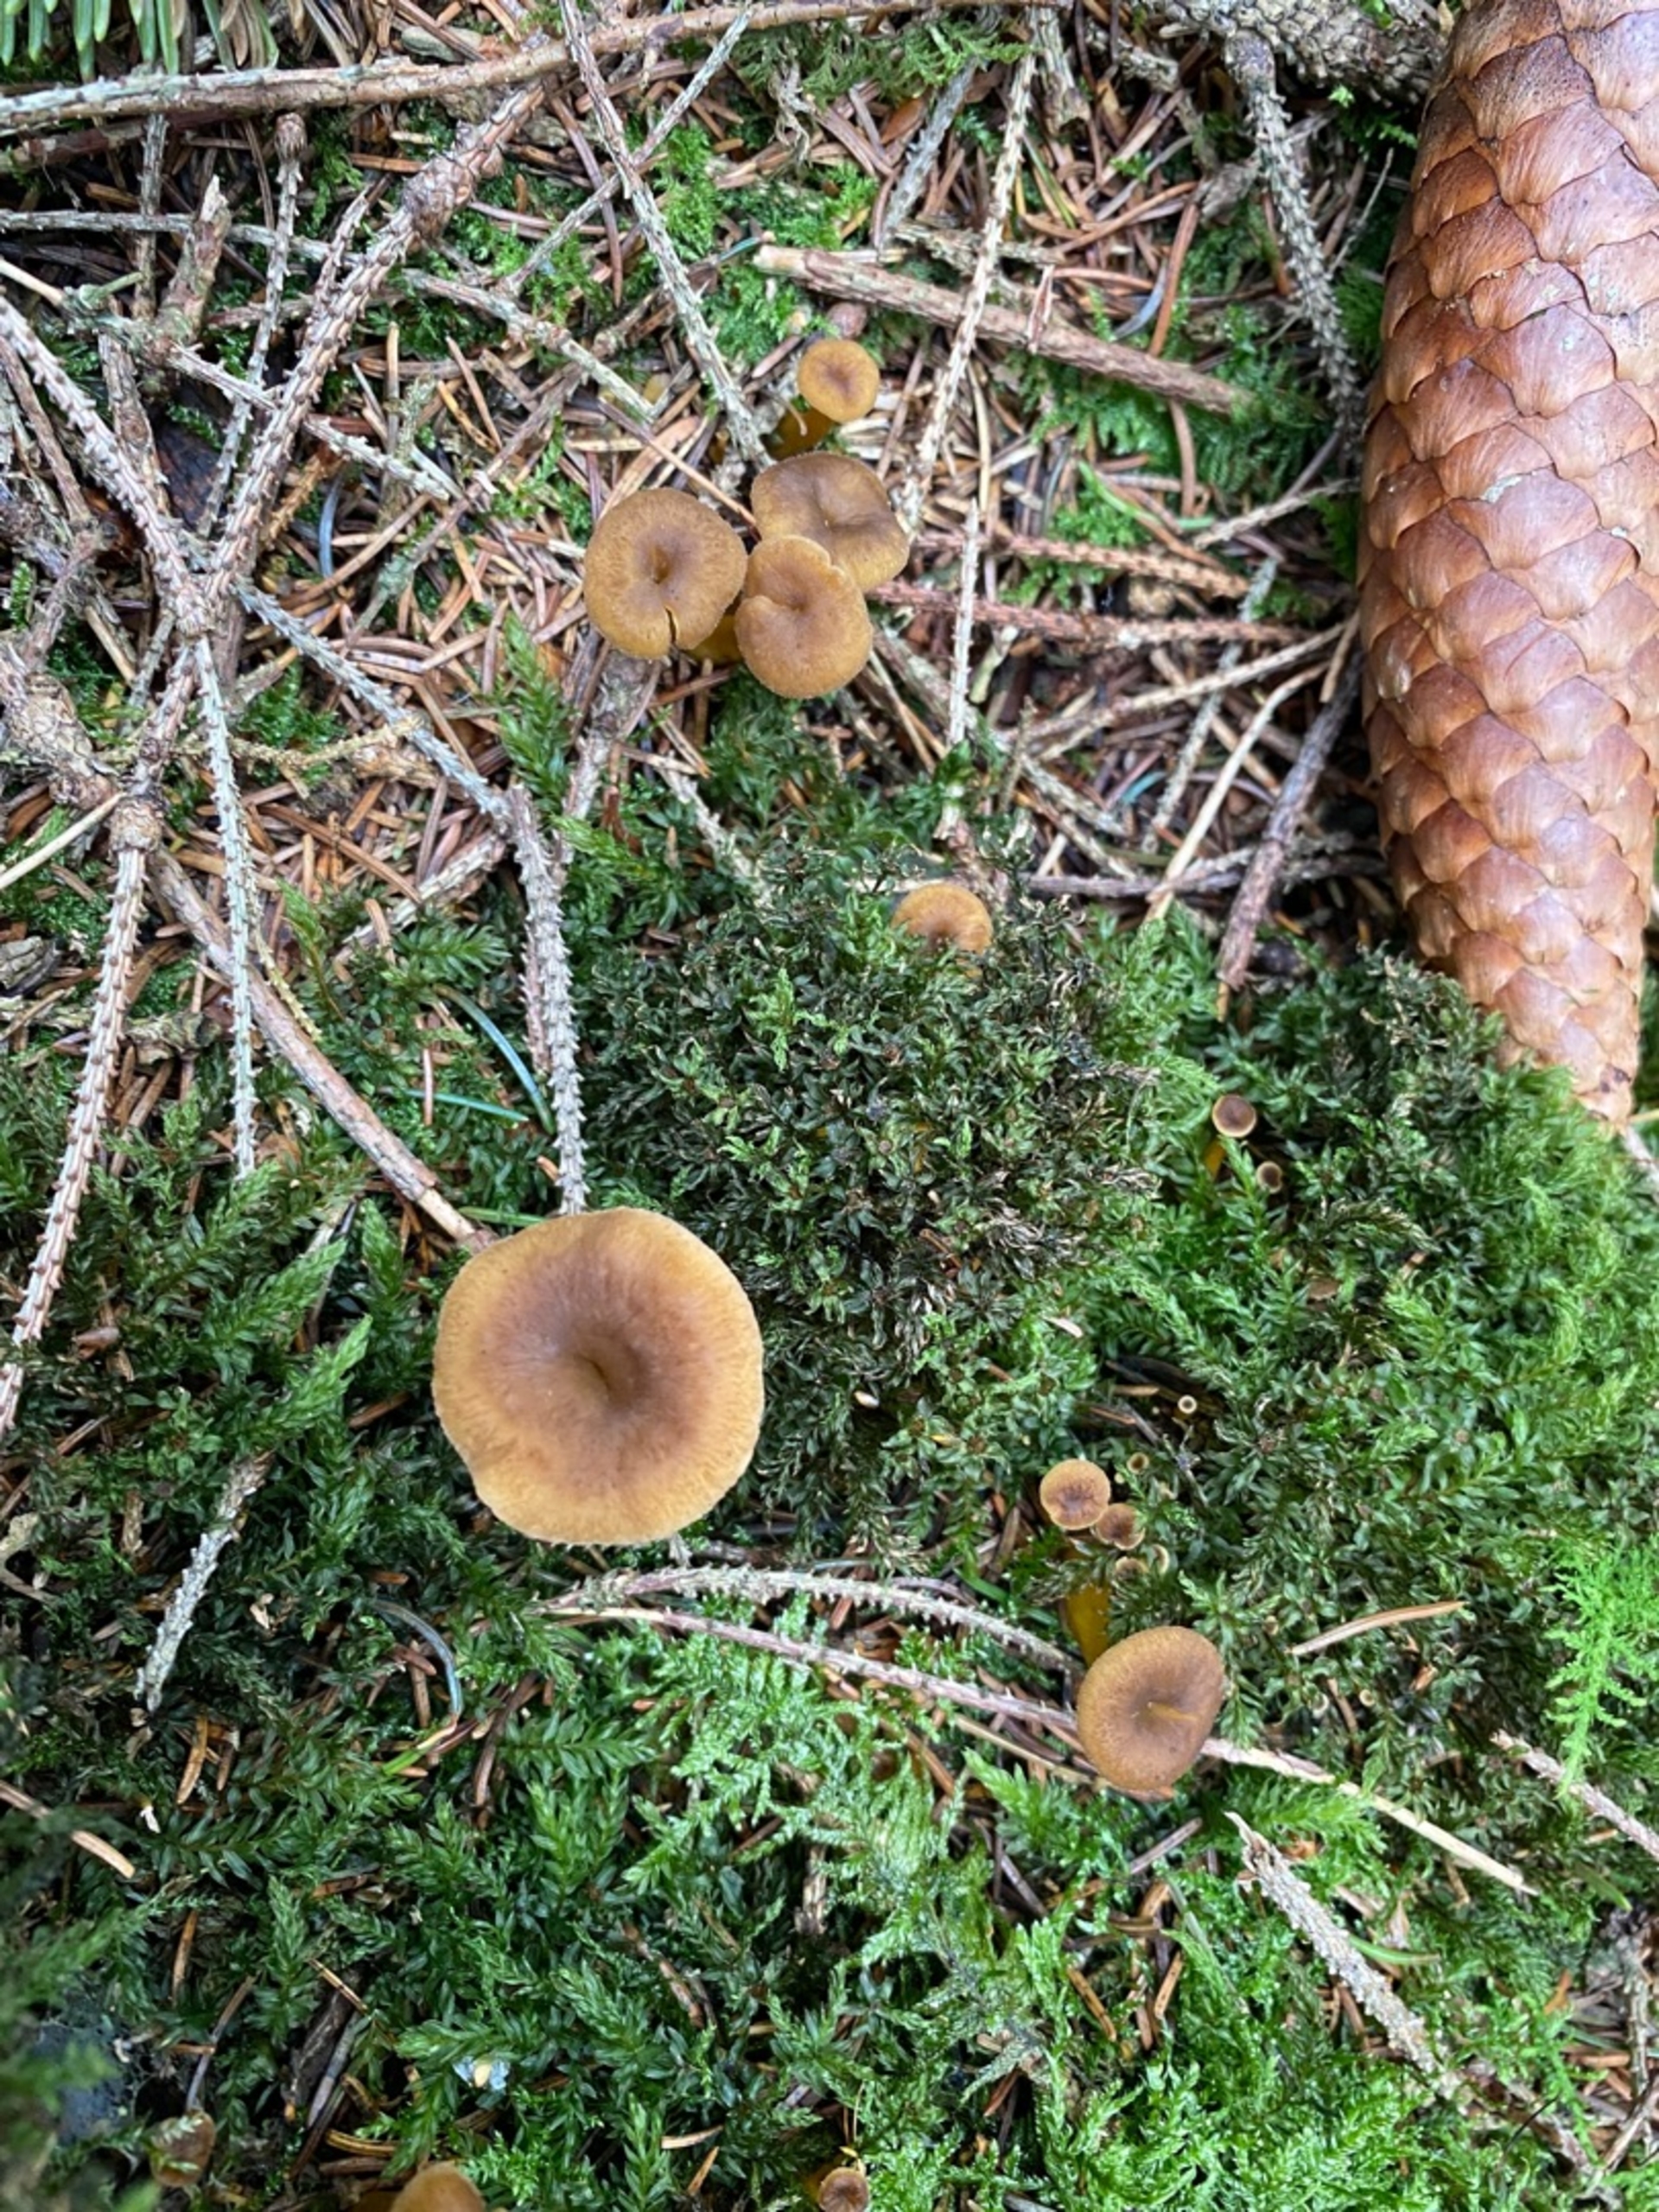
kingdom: Fungi
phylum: Basidiomycota
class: Agaricomycetes
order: Cantharellales
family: Hydnaceae
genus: Craterellus
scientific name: Craterellus tubaeformis
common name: Tragt-kantarel
